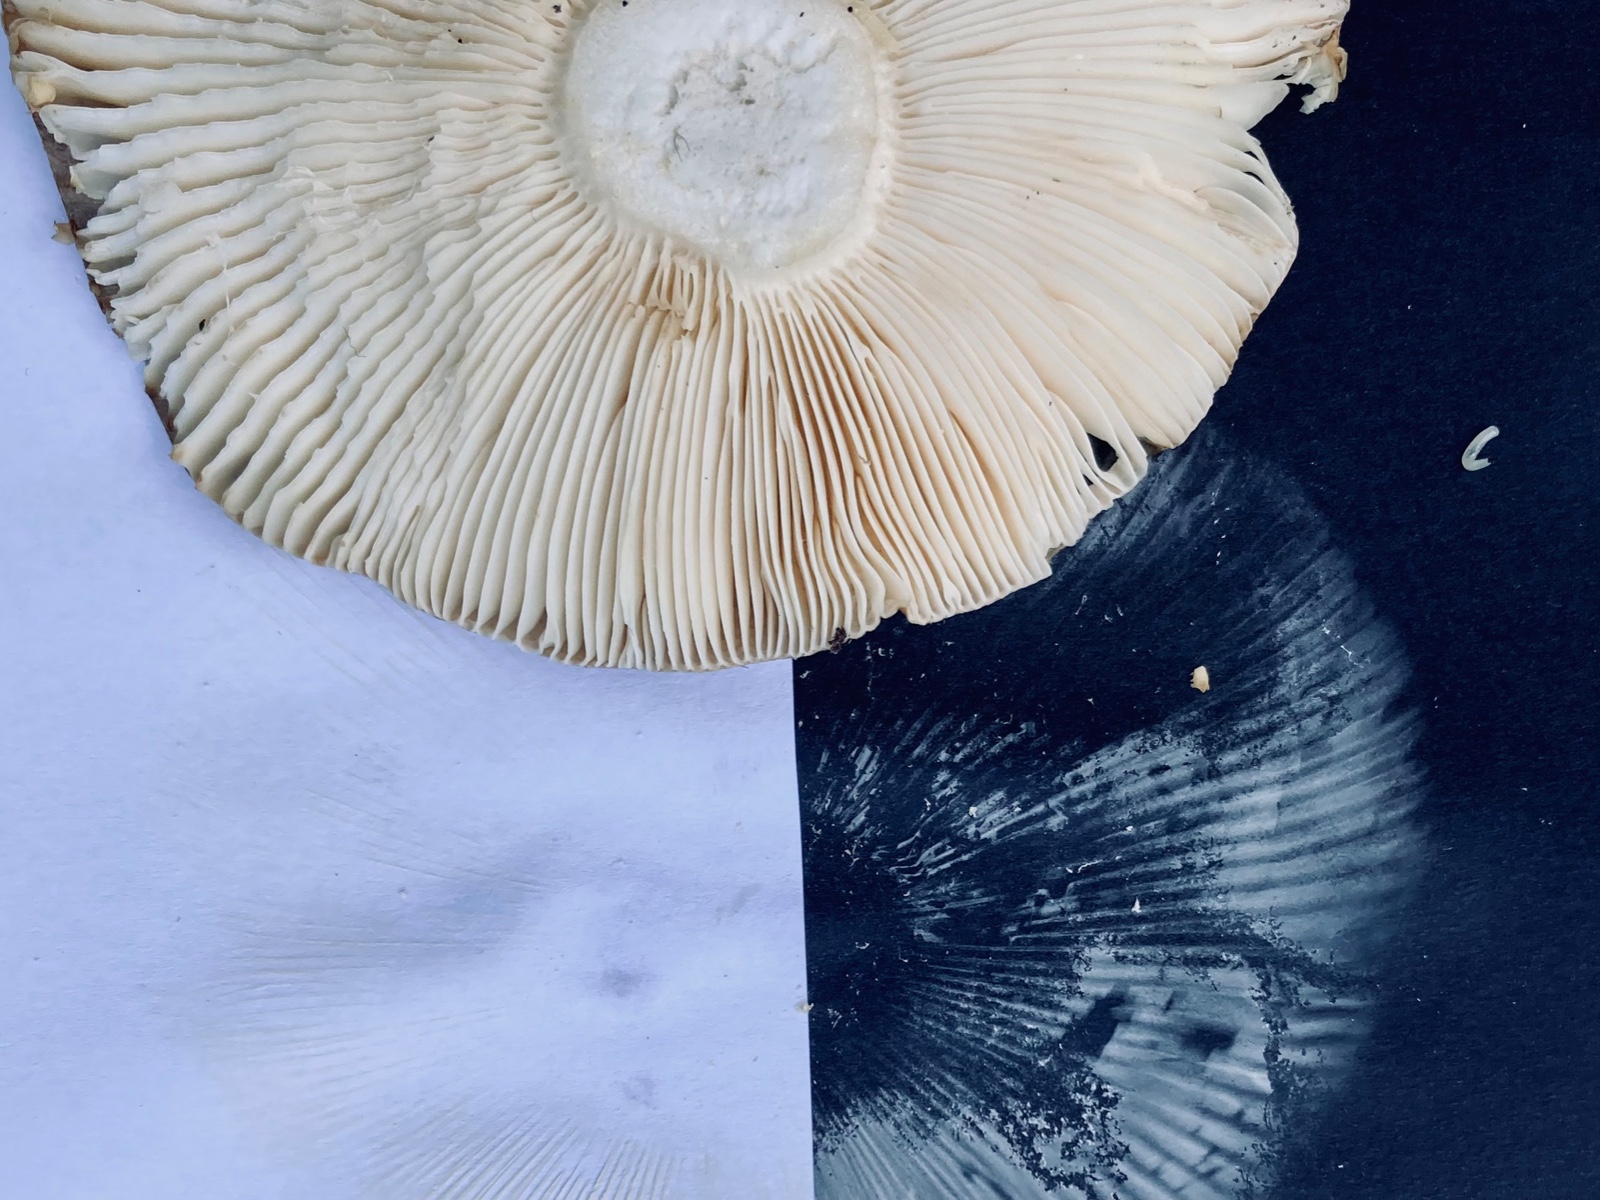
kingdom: Fungi
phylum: Basidiomycota
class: Agaricomycetes
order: Russulales
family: Russulaceae
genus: Russula
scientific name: Russula mustelina
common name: brun skørhat
